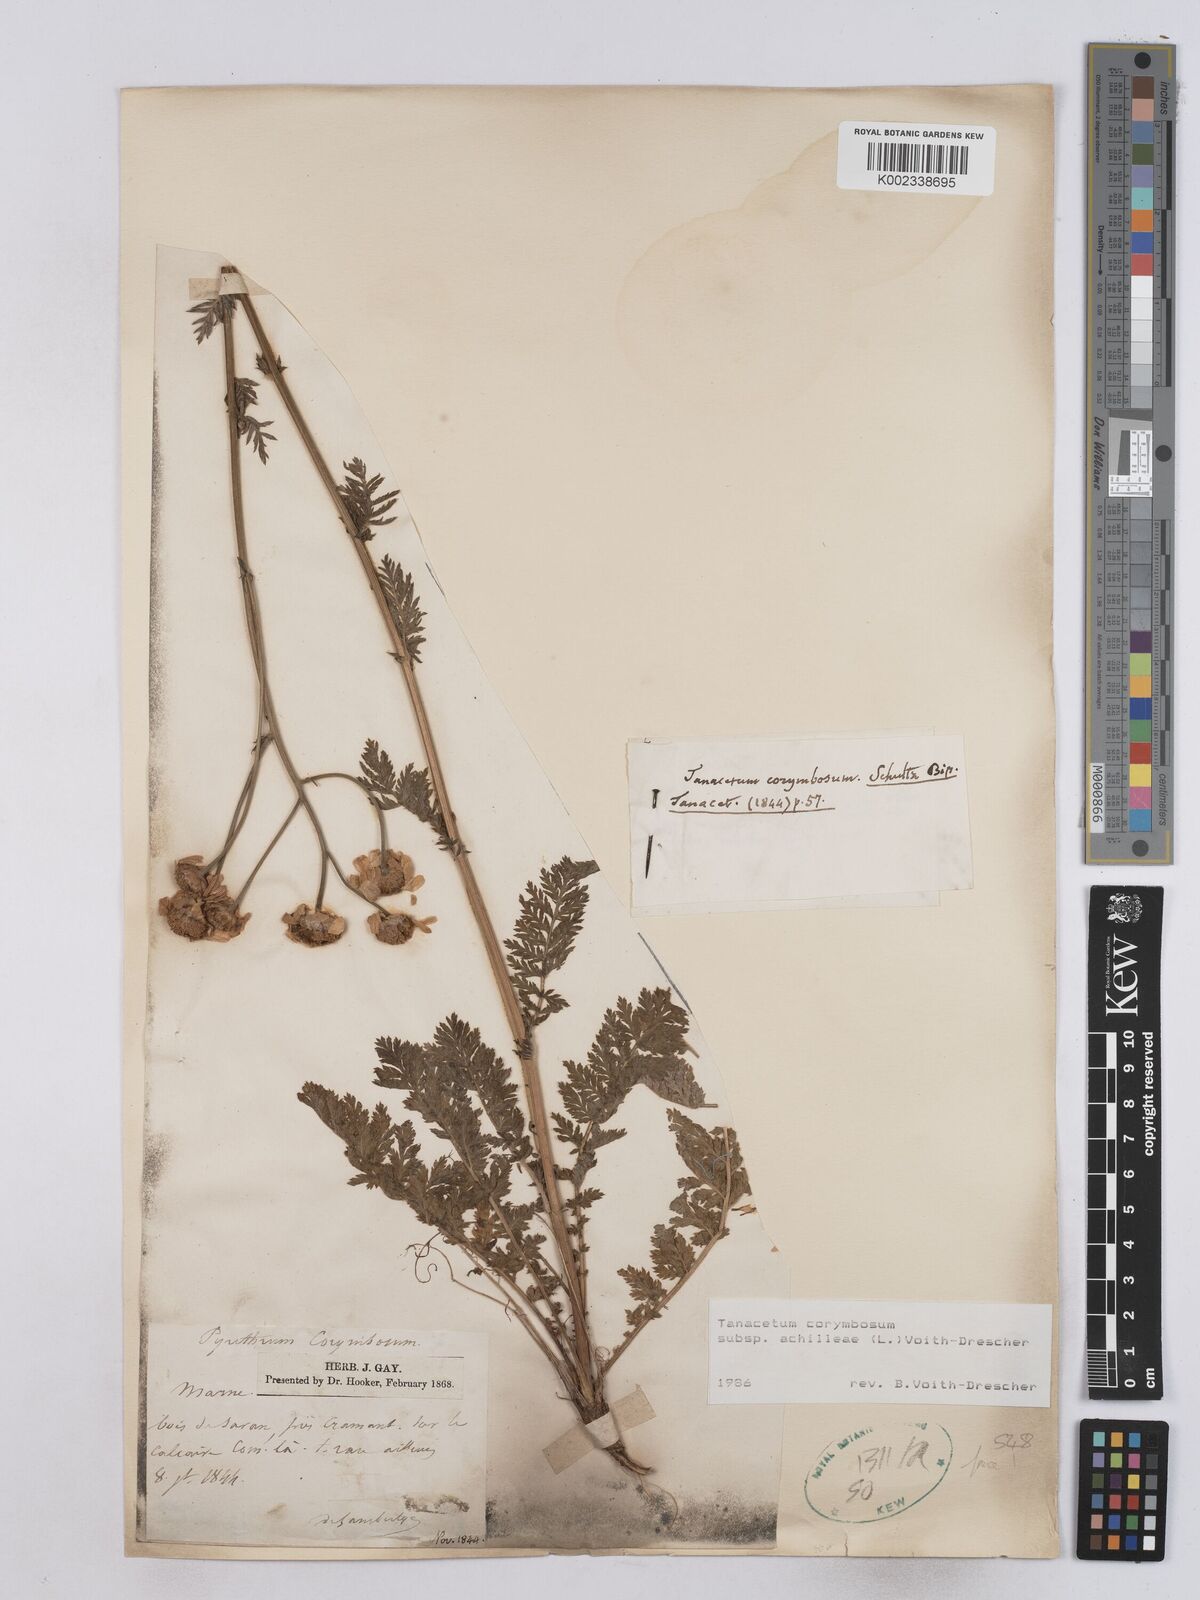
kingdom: Plantae
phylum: Tracheophyta
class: Magnoliopsida
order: Asterales
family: Asteraceae
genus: Tanacetum
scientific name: Tanacetum corymbosum
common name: Scentless feverfew
